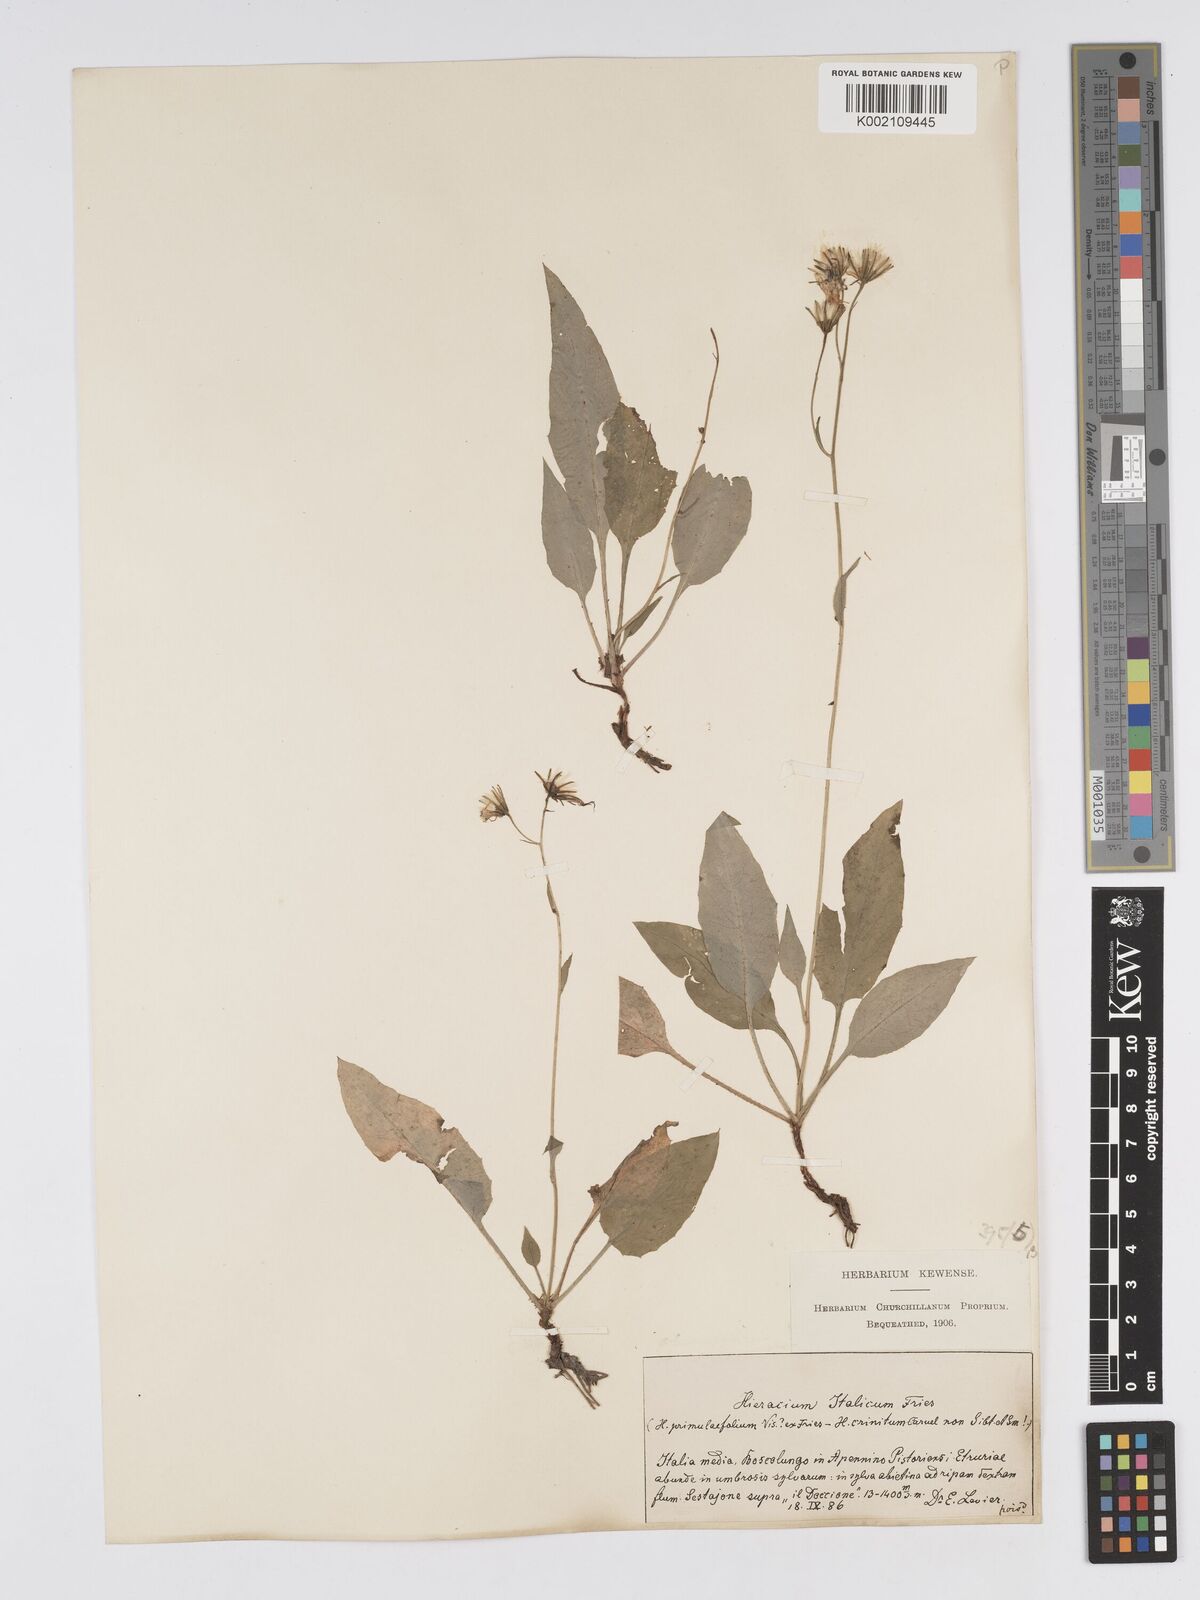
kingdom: Plantae
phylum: Tracheophyta
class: Magnoliopsida
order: Asterales
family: Asteraceae
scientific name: Asteraceae
